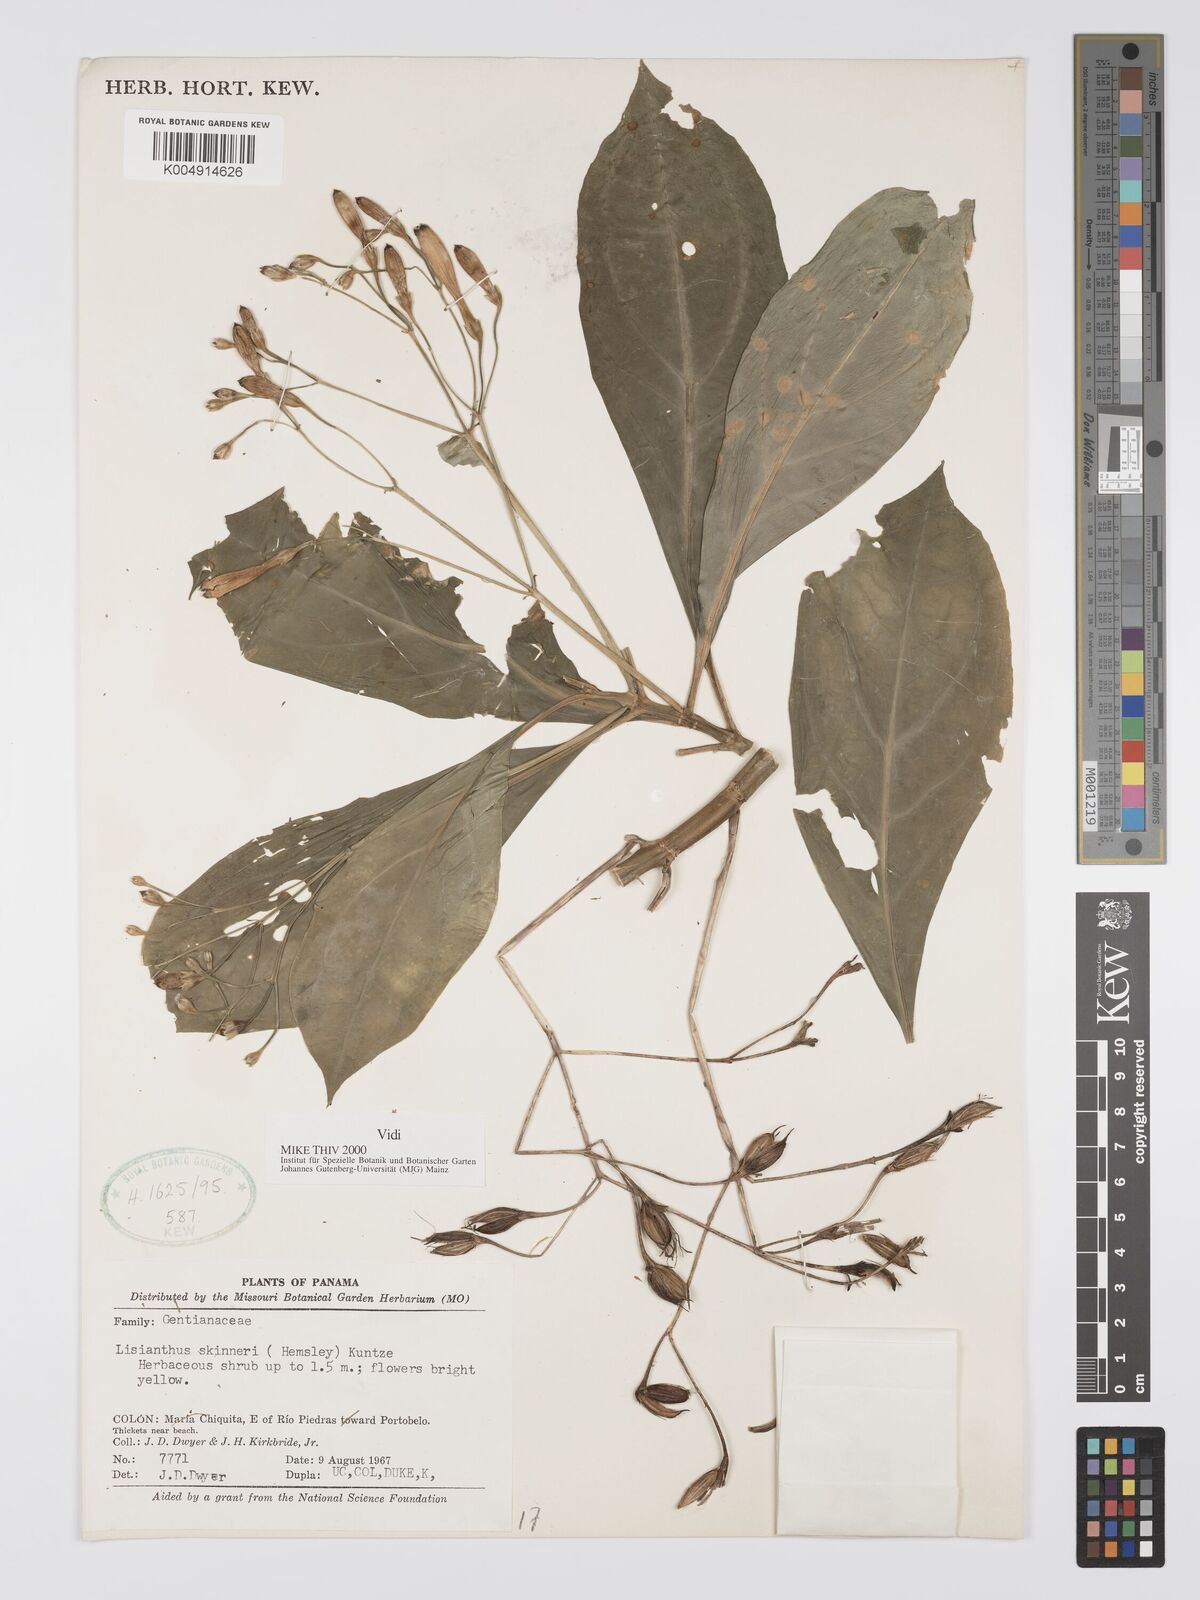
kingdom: Plantae
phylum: Tracheophyta
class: Magnoliopsida
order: Gentianales
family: Gentianaceae
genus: Lisianthus
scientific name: Lisianthus skinneri
